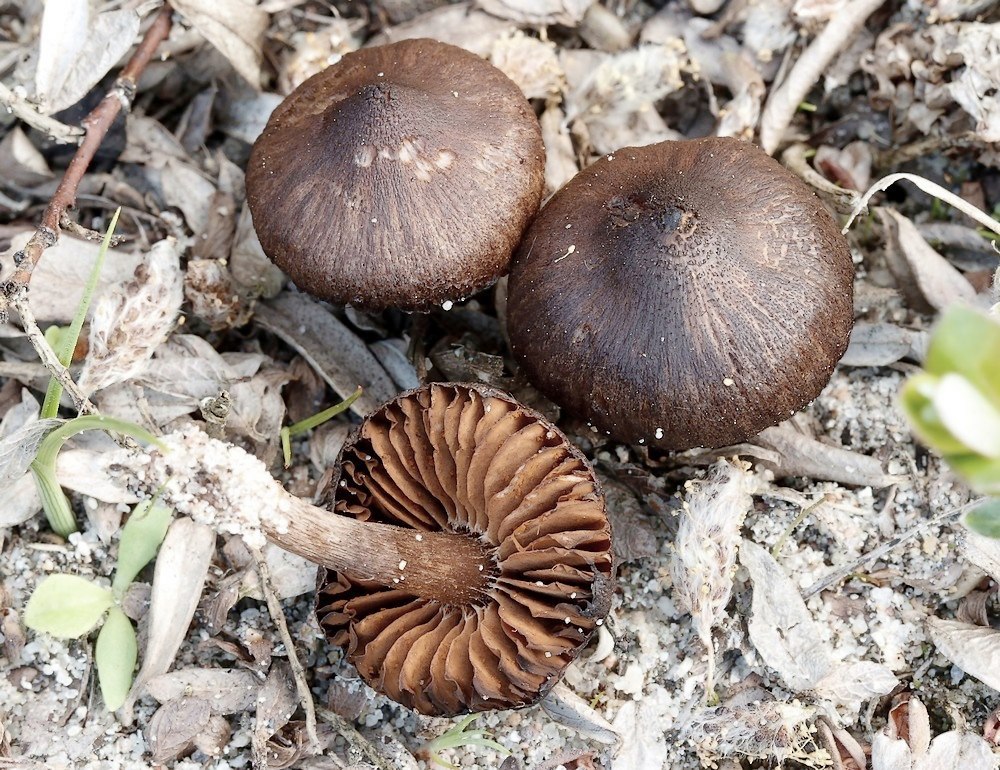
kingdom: Fungi
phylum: Basidiomycota
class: Agaricomycetes
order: Agaricales
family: Cortinariaceae
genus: Cortinarius
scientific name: Cortinarius suberythrinus
